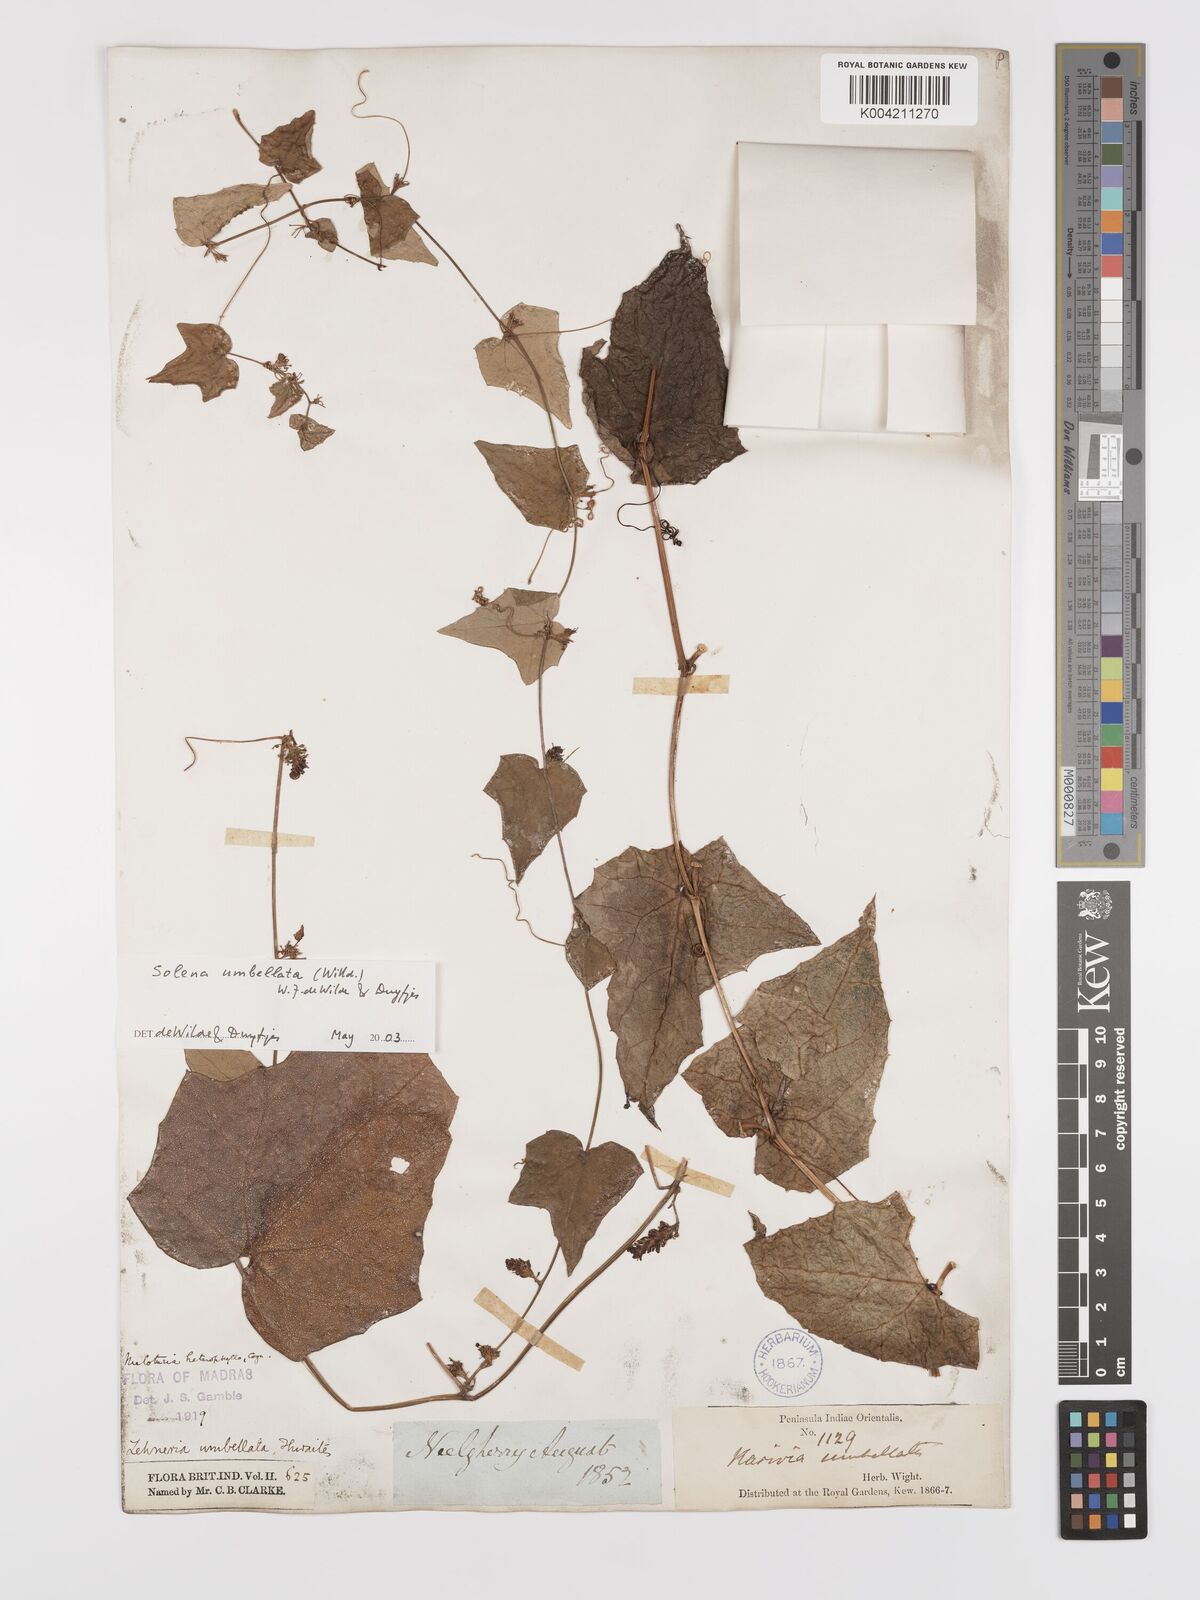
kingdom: Plantae
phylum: Tracheophyta
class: Magnoliopsida
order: Cucurbitales
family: Cucurbitaceae
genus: Solena
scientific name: Solena amplexicaulis
